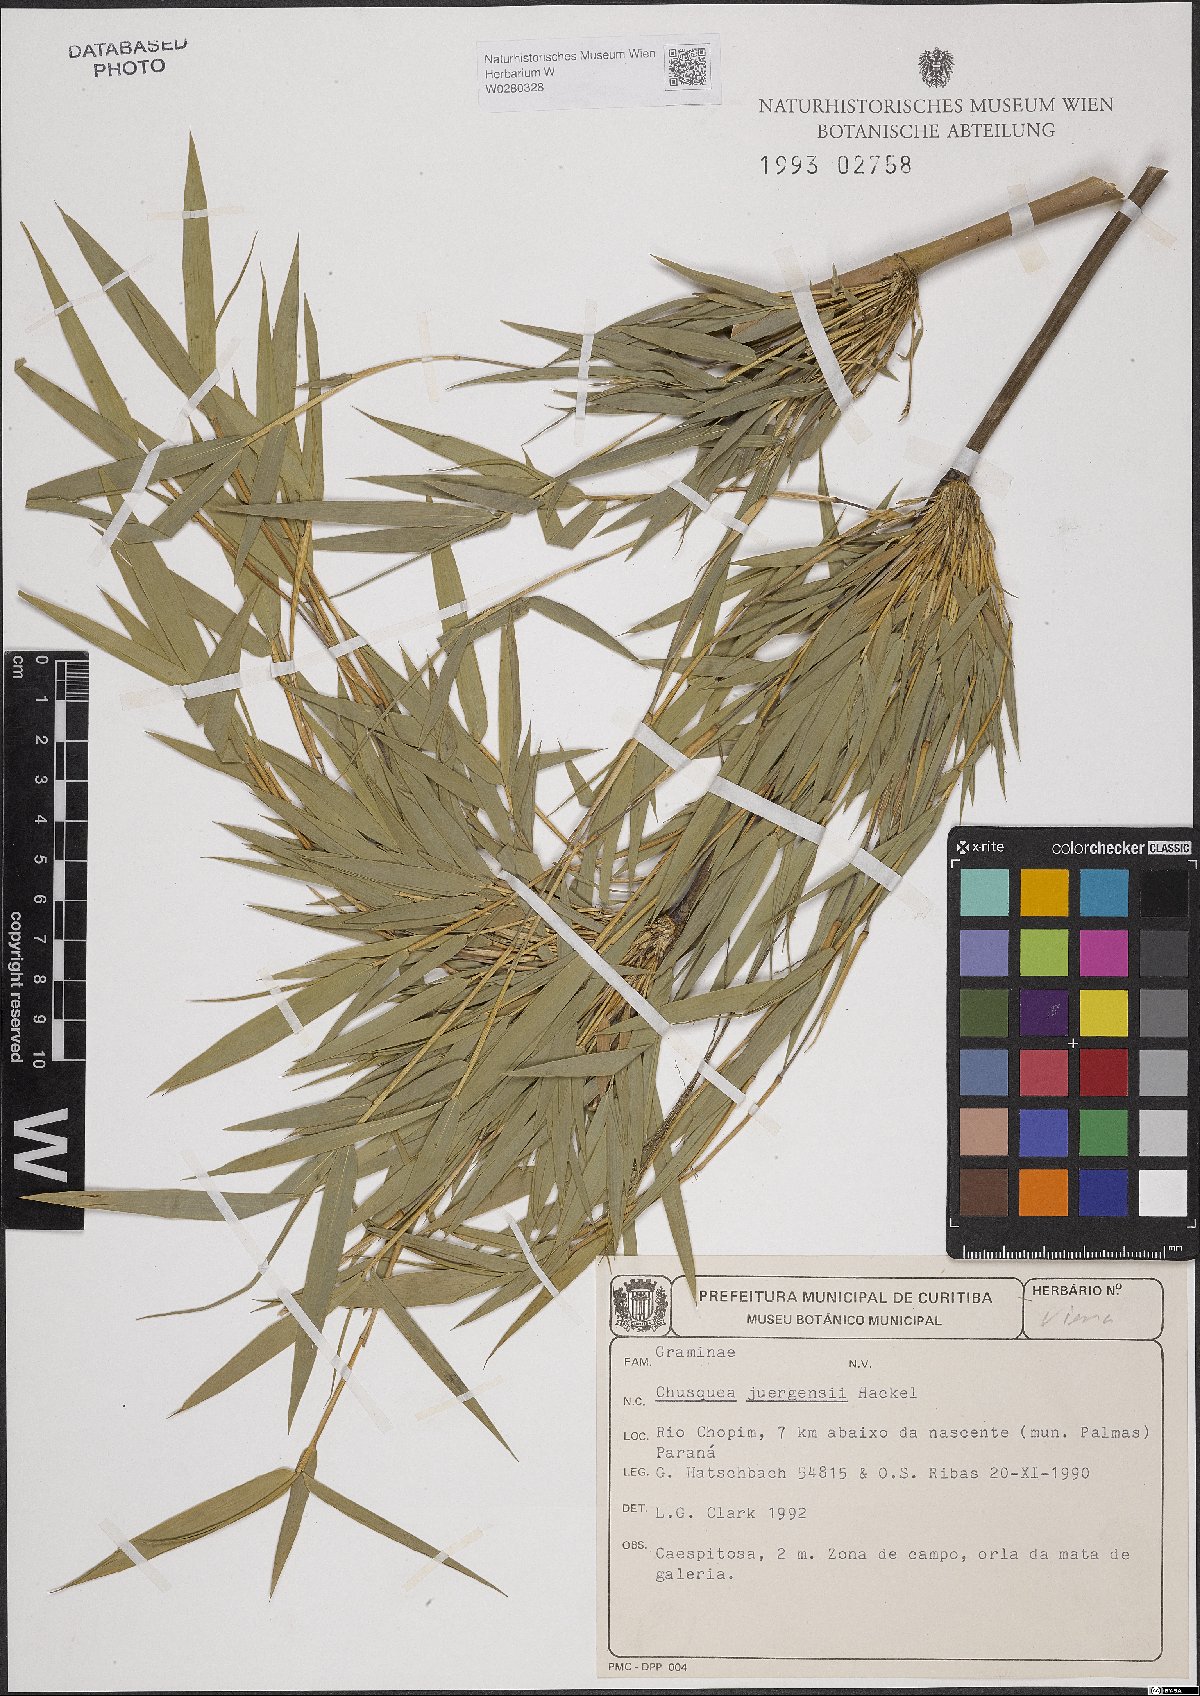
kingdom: Plantae
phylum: Tracheophyta
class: Liliopsida
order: Poales
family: Poaceae
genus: Chusquea
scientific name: Chusquea juergensii
